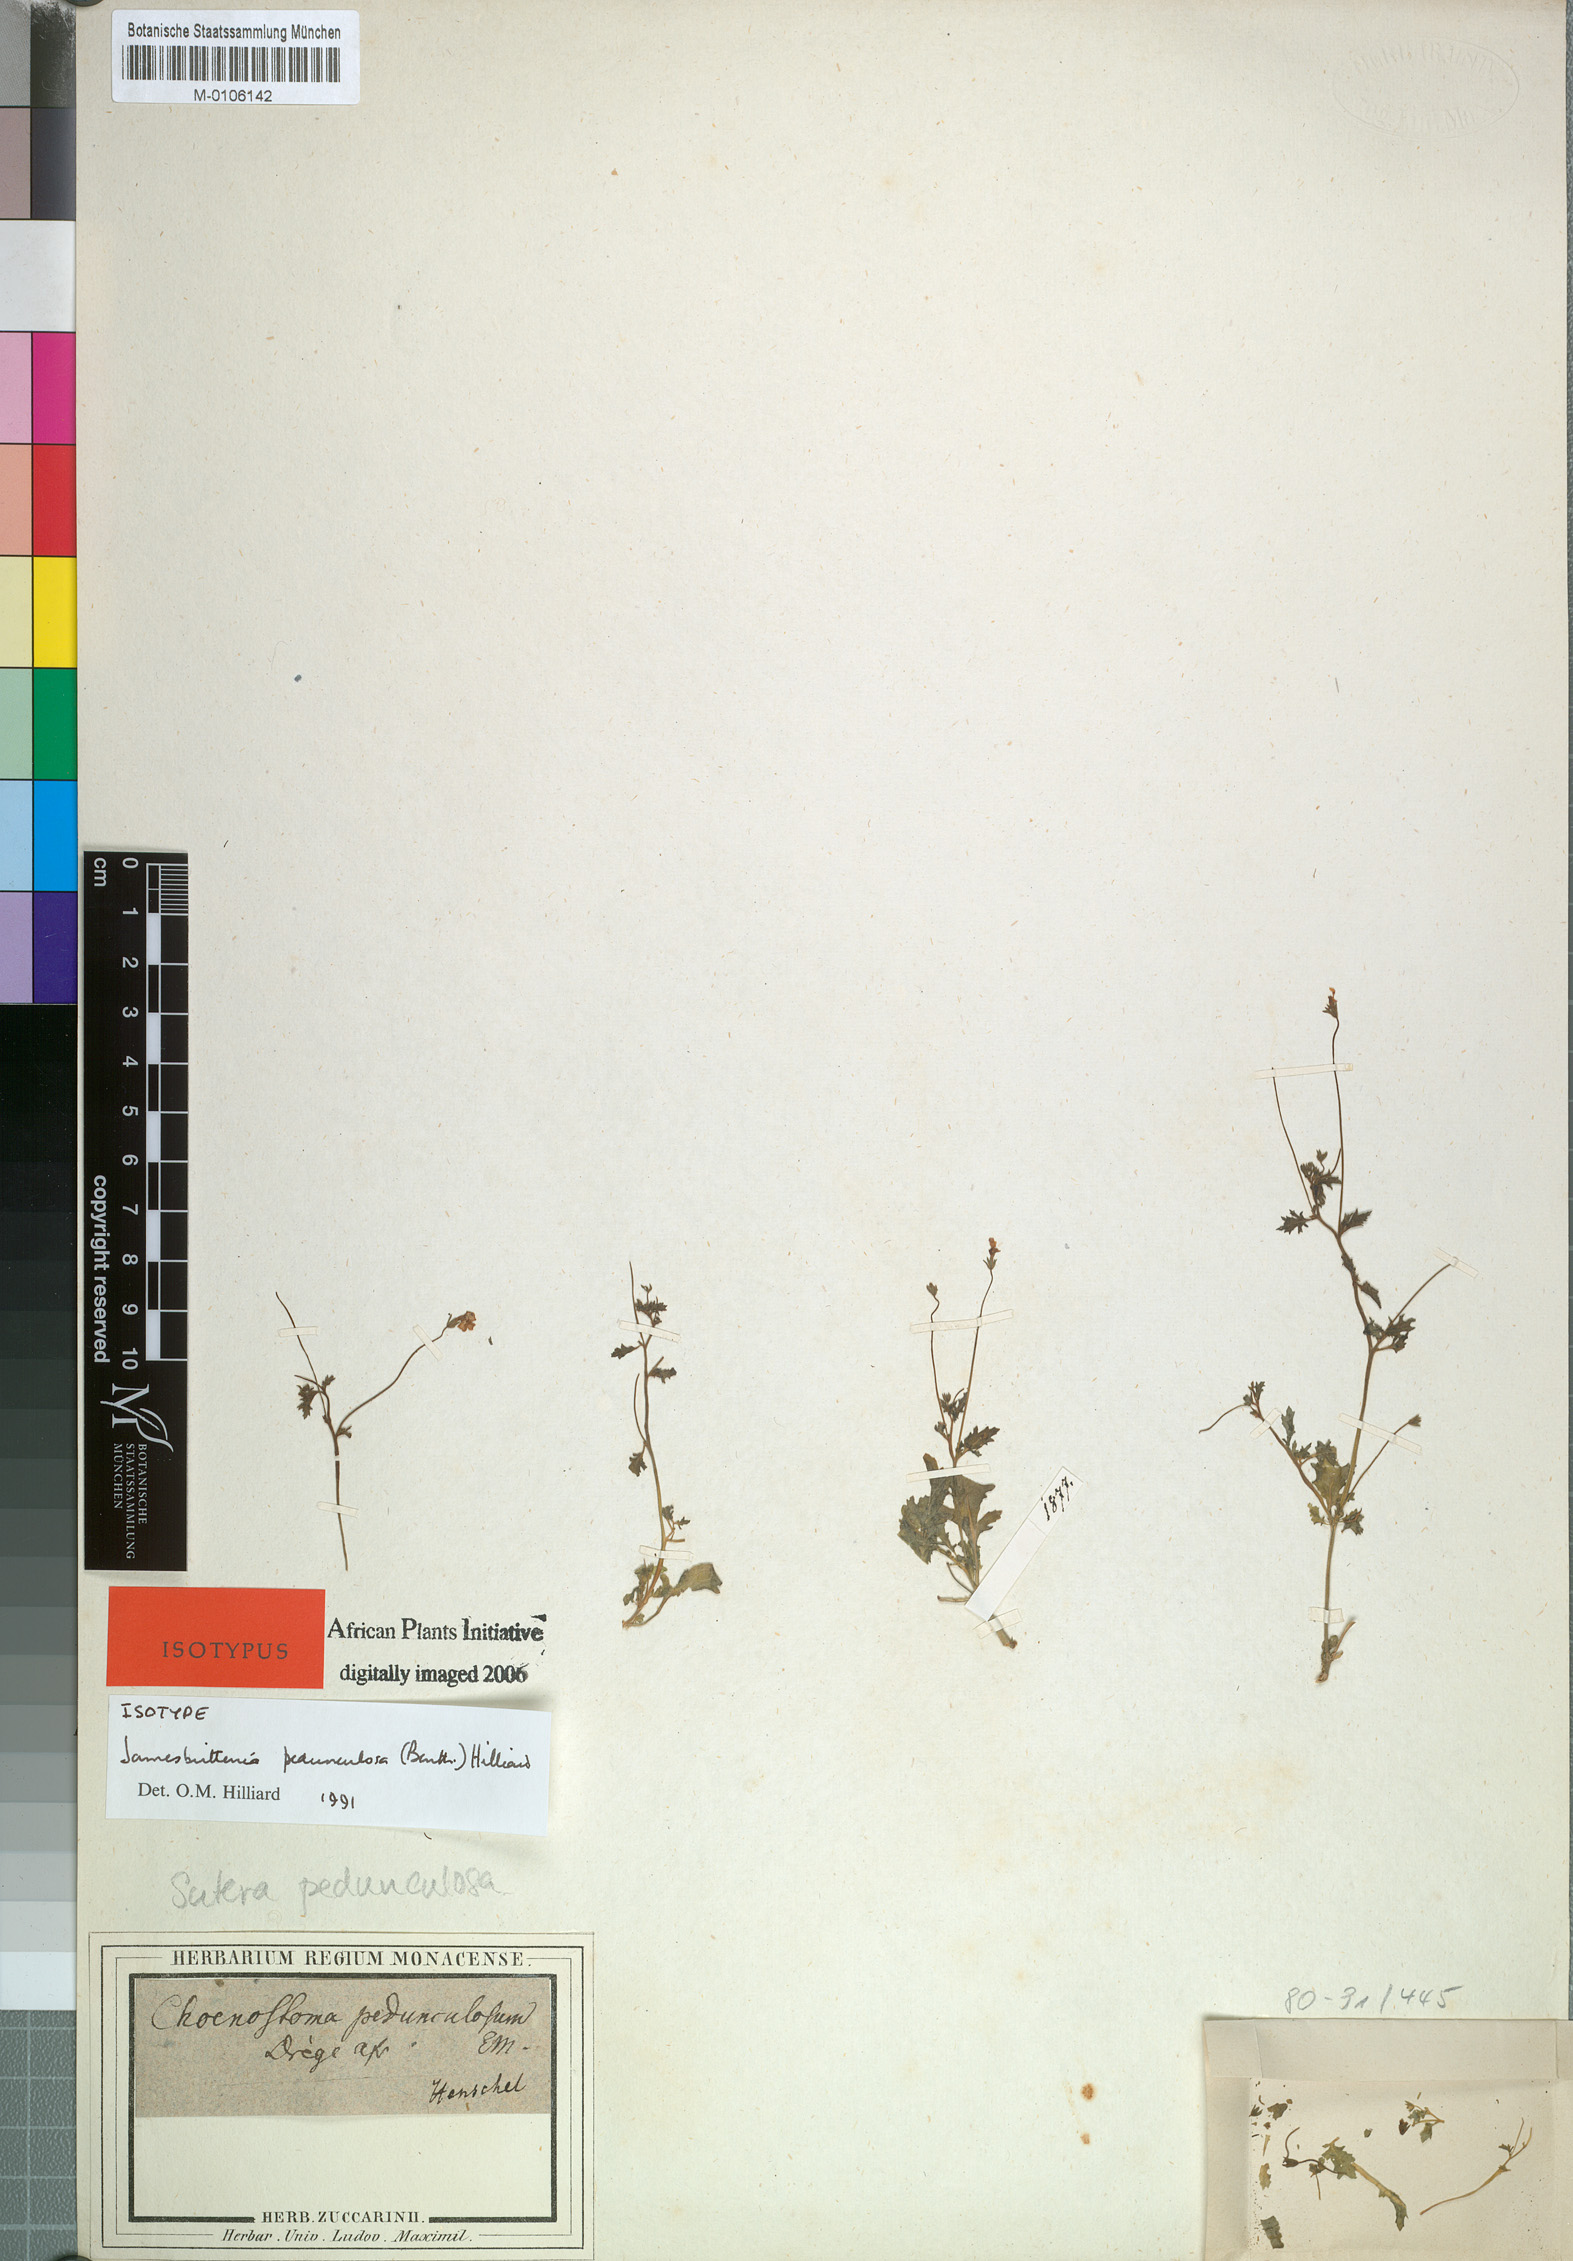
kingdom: Plantae
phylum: Tracheophyta
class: Magnoliopsida
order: Lamiales
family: Scrophulariaceae
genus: Jamesbrittenia
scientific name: Jamesbrittenia pedunculosa
